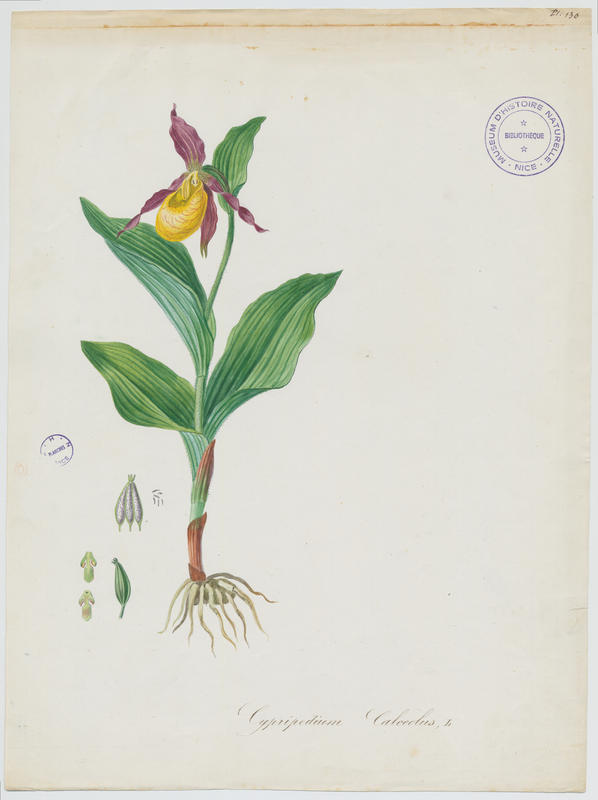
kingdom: Plantae
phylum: Tracheophyta
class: Liliopsida
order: Asparagales
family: Orchidaceae
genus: Cypripedium
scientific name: Cypripedium calceolus
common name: Lady's-slipper
